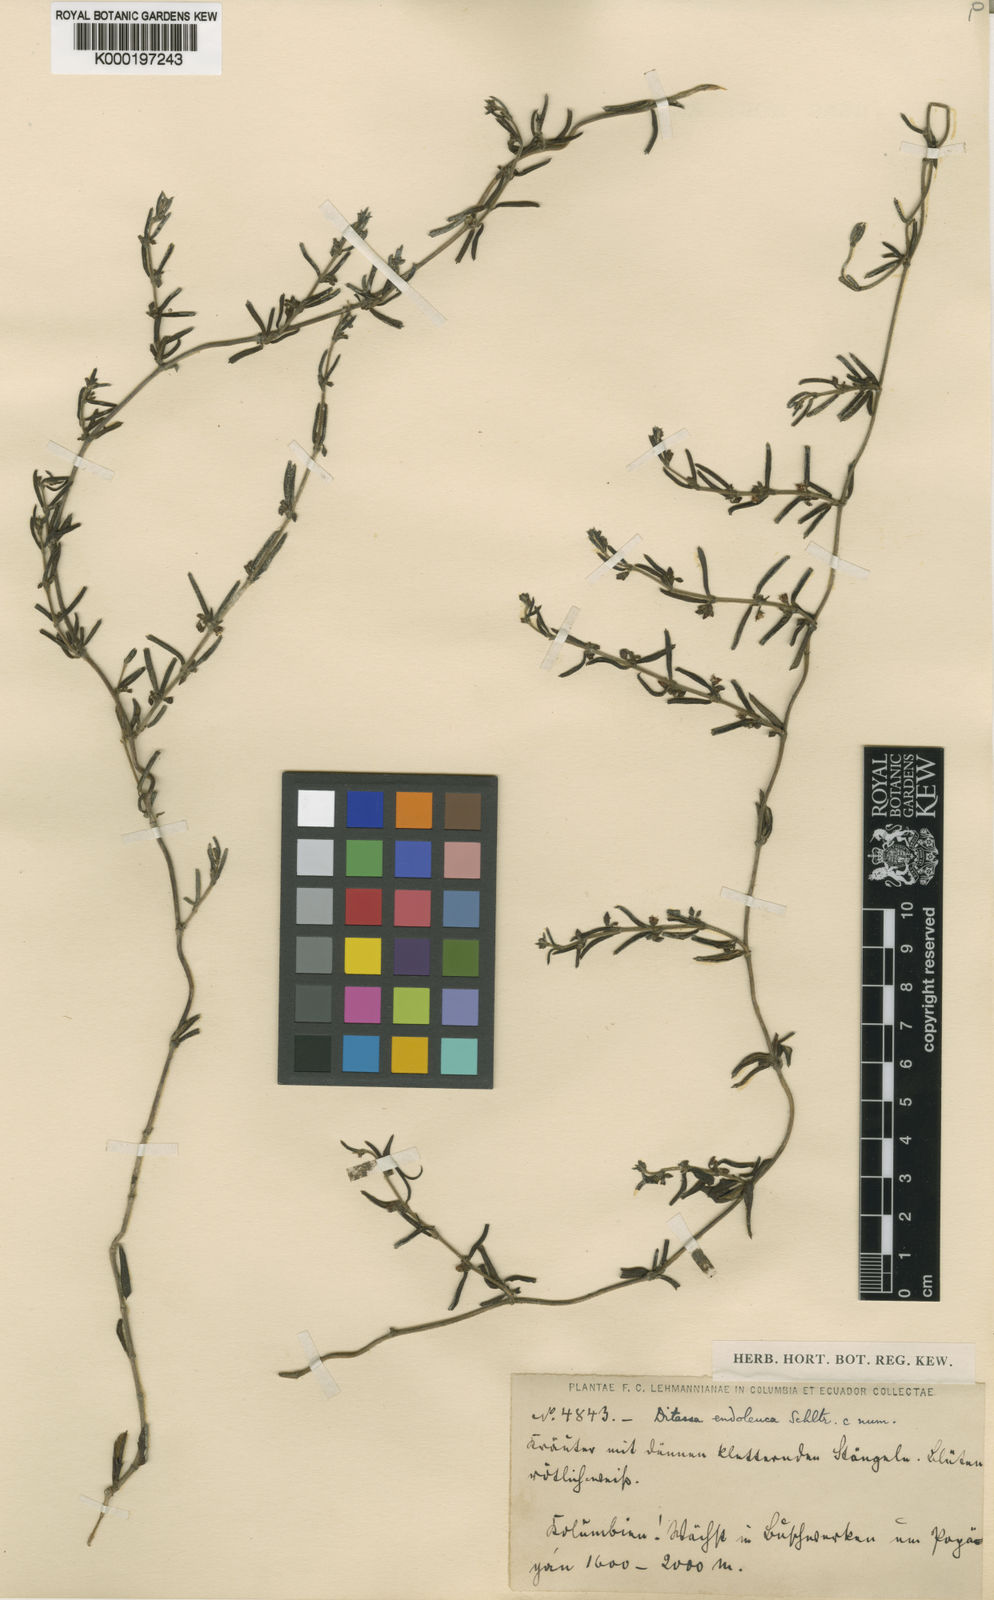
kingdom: Plantae
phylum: Tracheophyta
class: Magnoliopsida
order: Gentianales
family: Apocynaceae
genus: Ditassa
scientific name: Ditassa endoleuca
